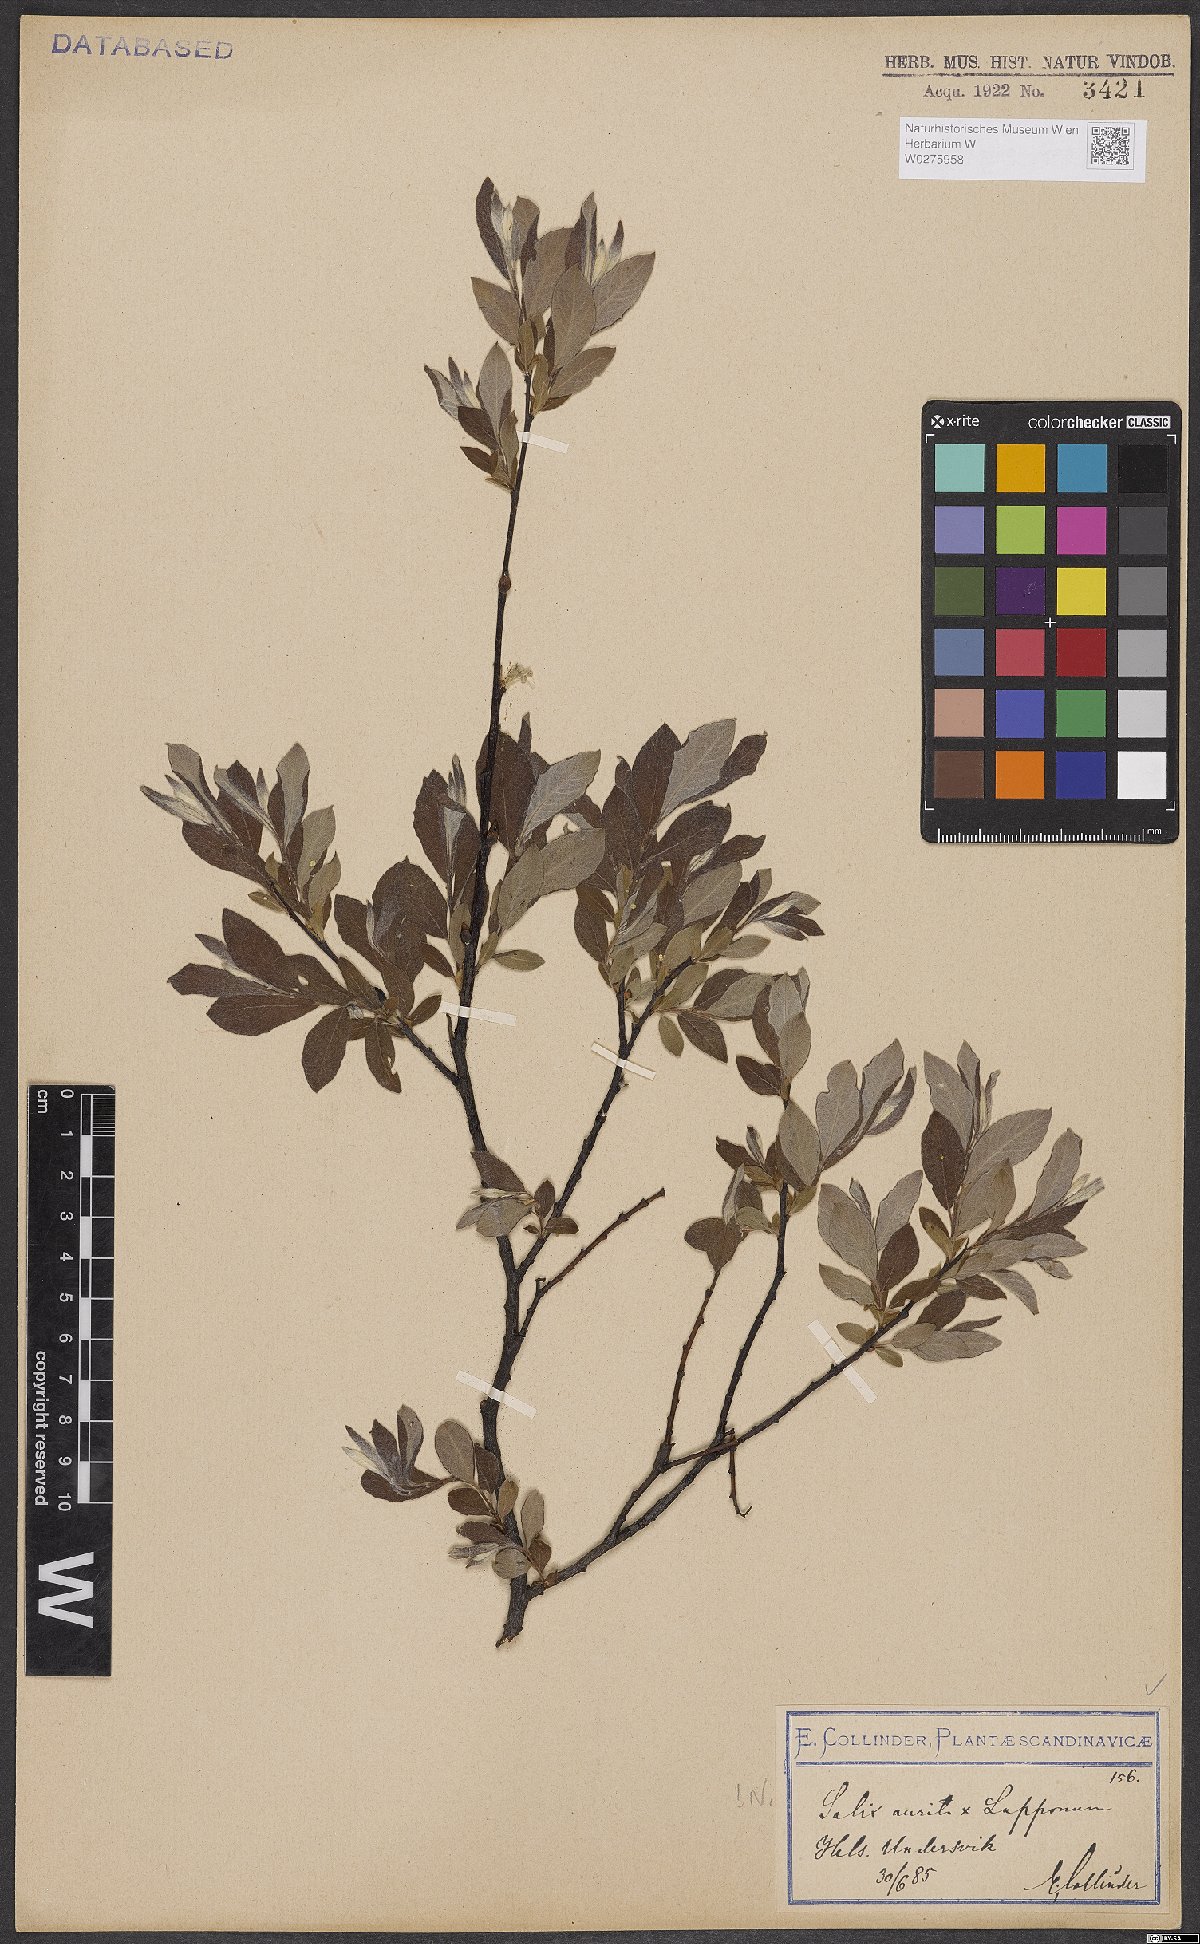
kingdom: Plantae
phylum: Tracheophyta
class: Magnoliopsida
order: Malpighiales
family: Salicaceae
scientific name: Salicaceae
